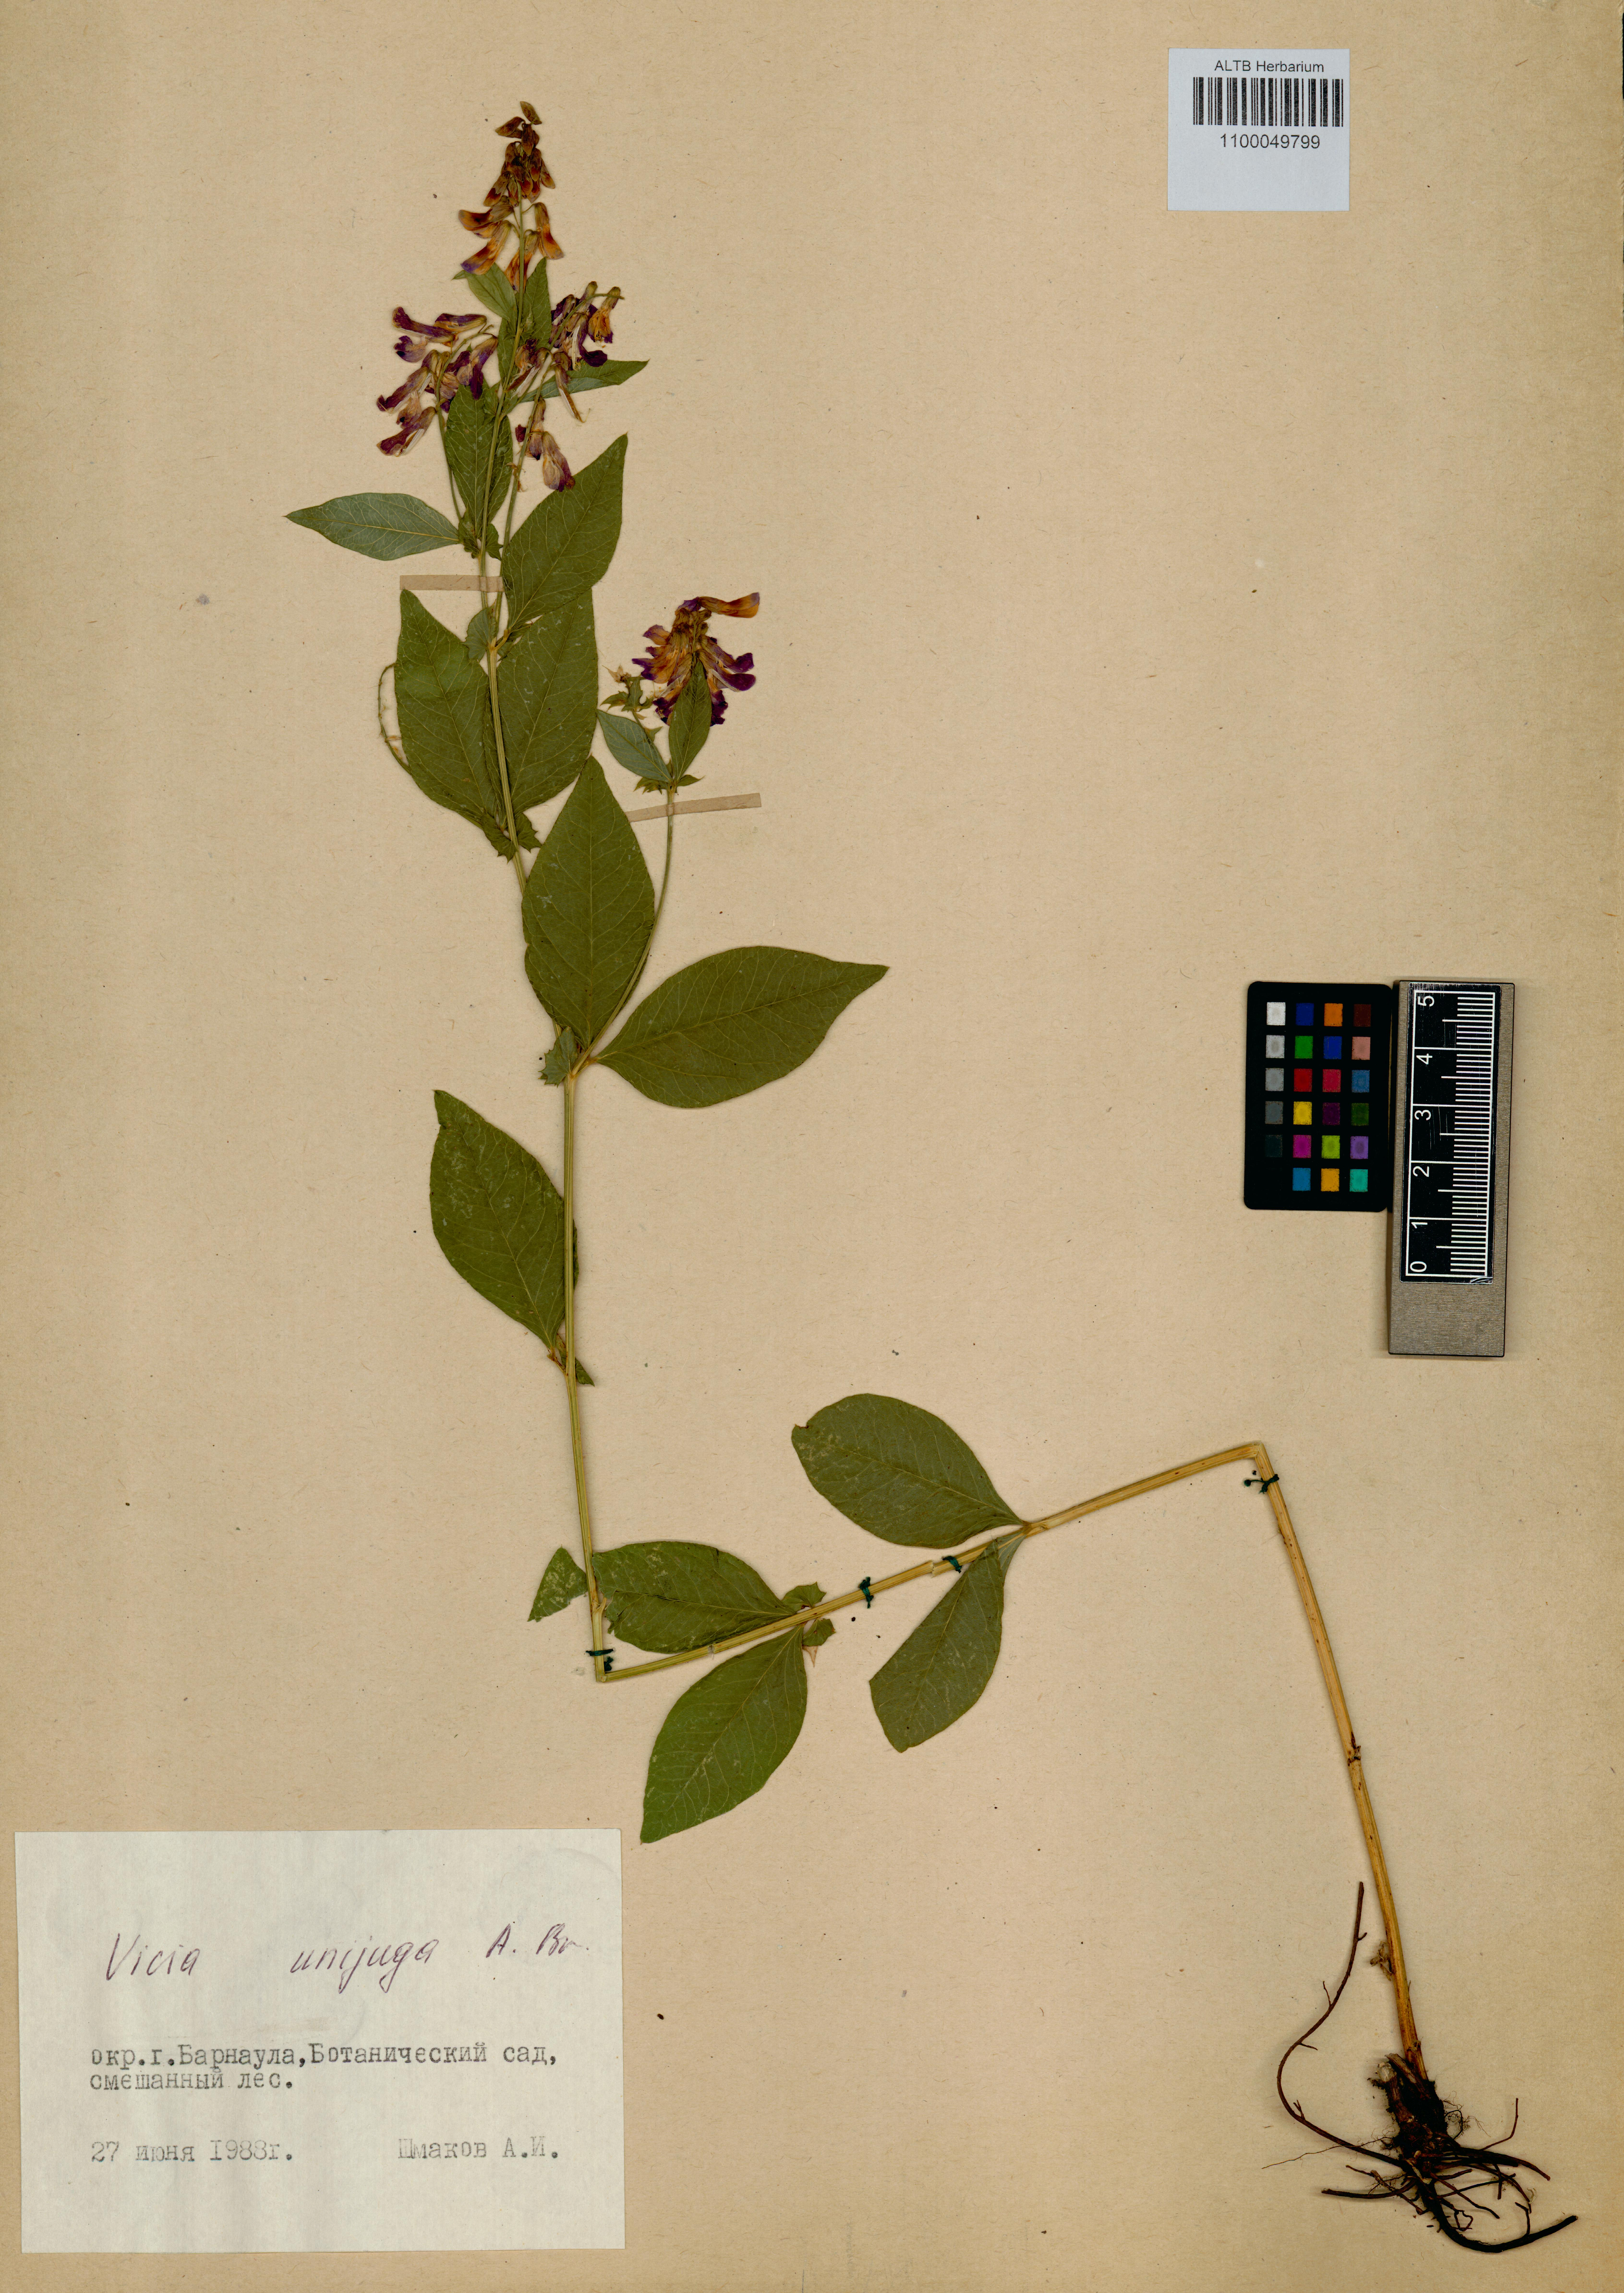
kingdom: Plantae
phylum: Tracheophyta
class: Magnoliopsida
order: Fabales
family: Fabaceae
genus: Vicia
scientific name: Vicia unijuga
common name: Two-leaf vetch
